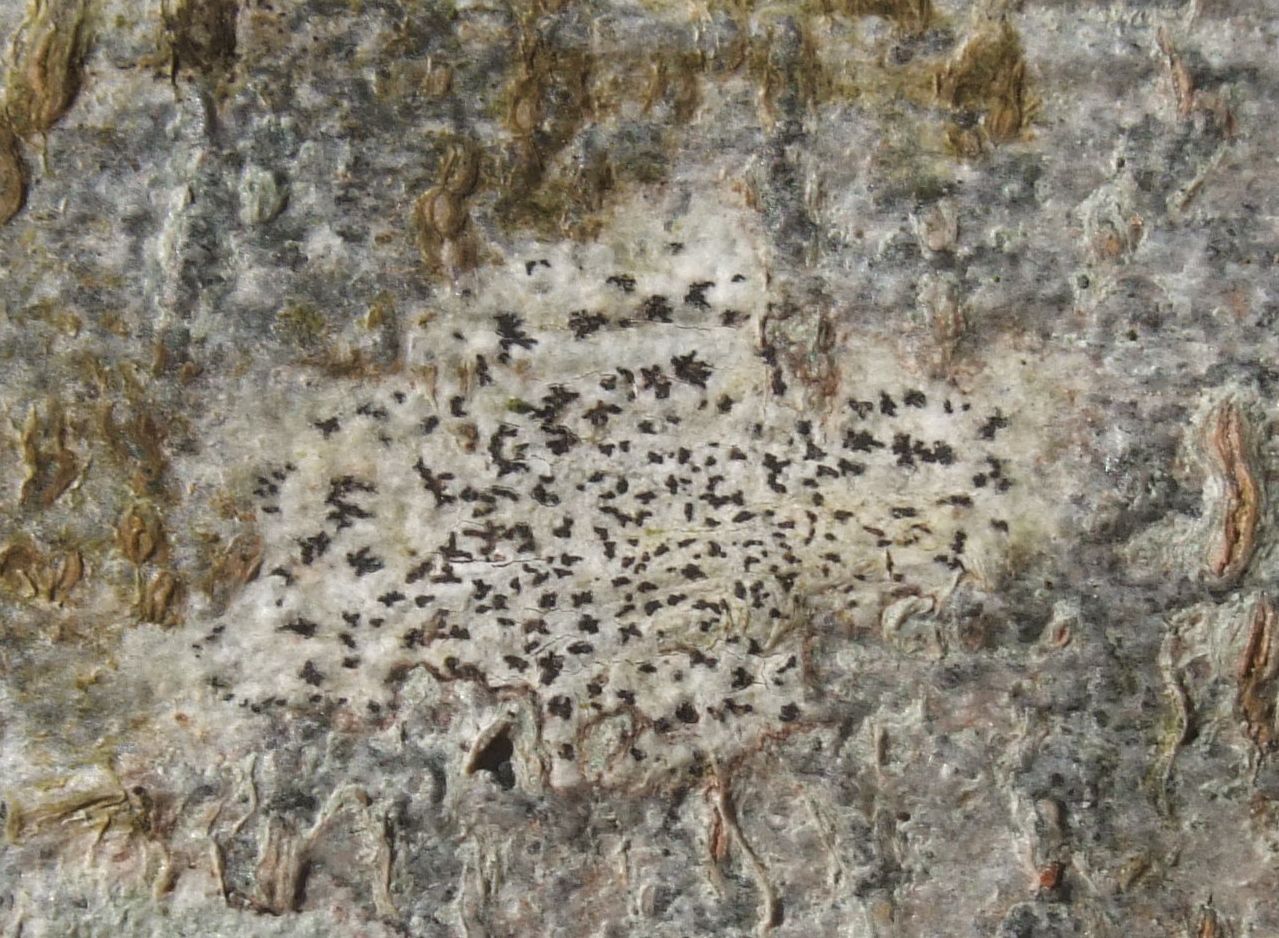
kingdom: Fungi
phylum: Ascomycota
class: Arthoniomycetes
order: Arthoniales
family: Arthoniaceae
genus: Arthonia
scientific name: Arthonia radiata
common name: stjerne-pletlav
